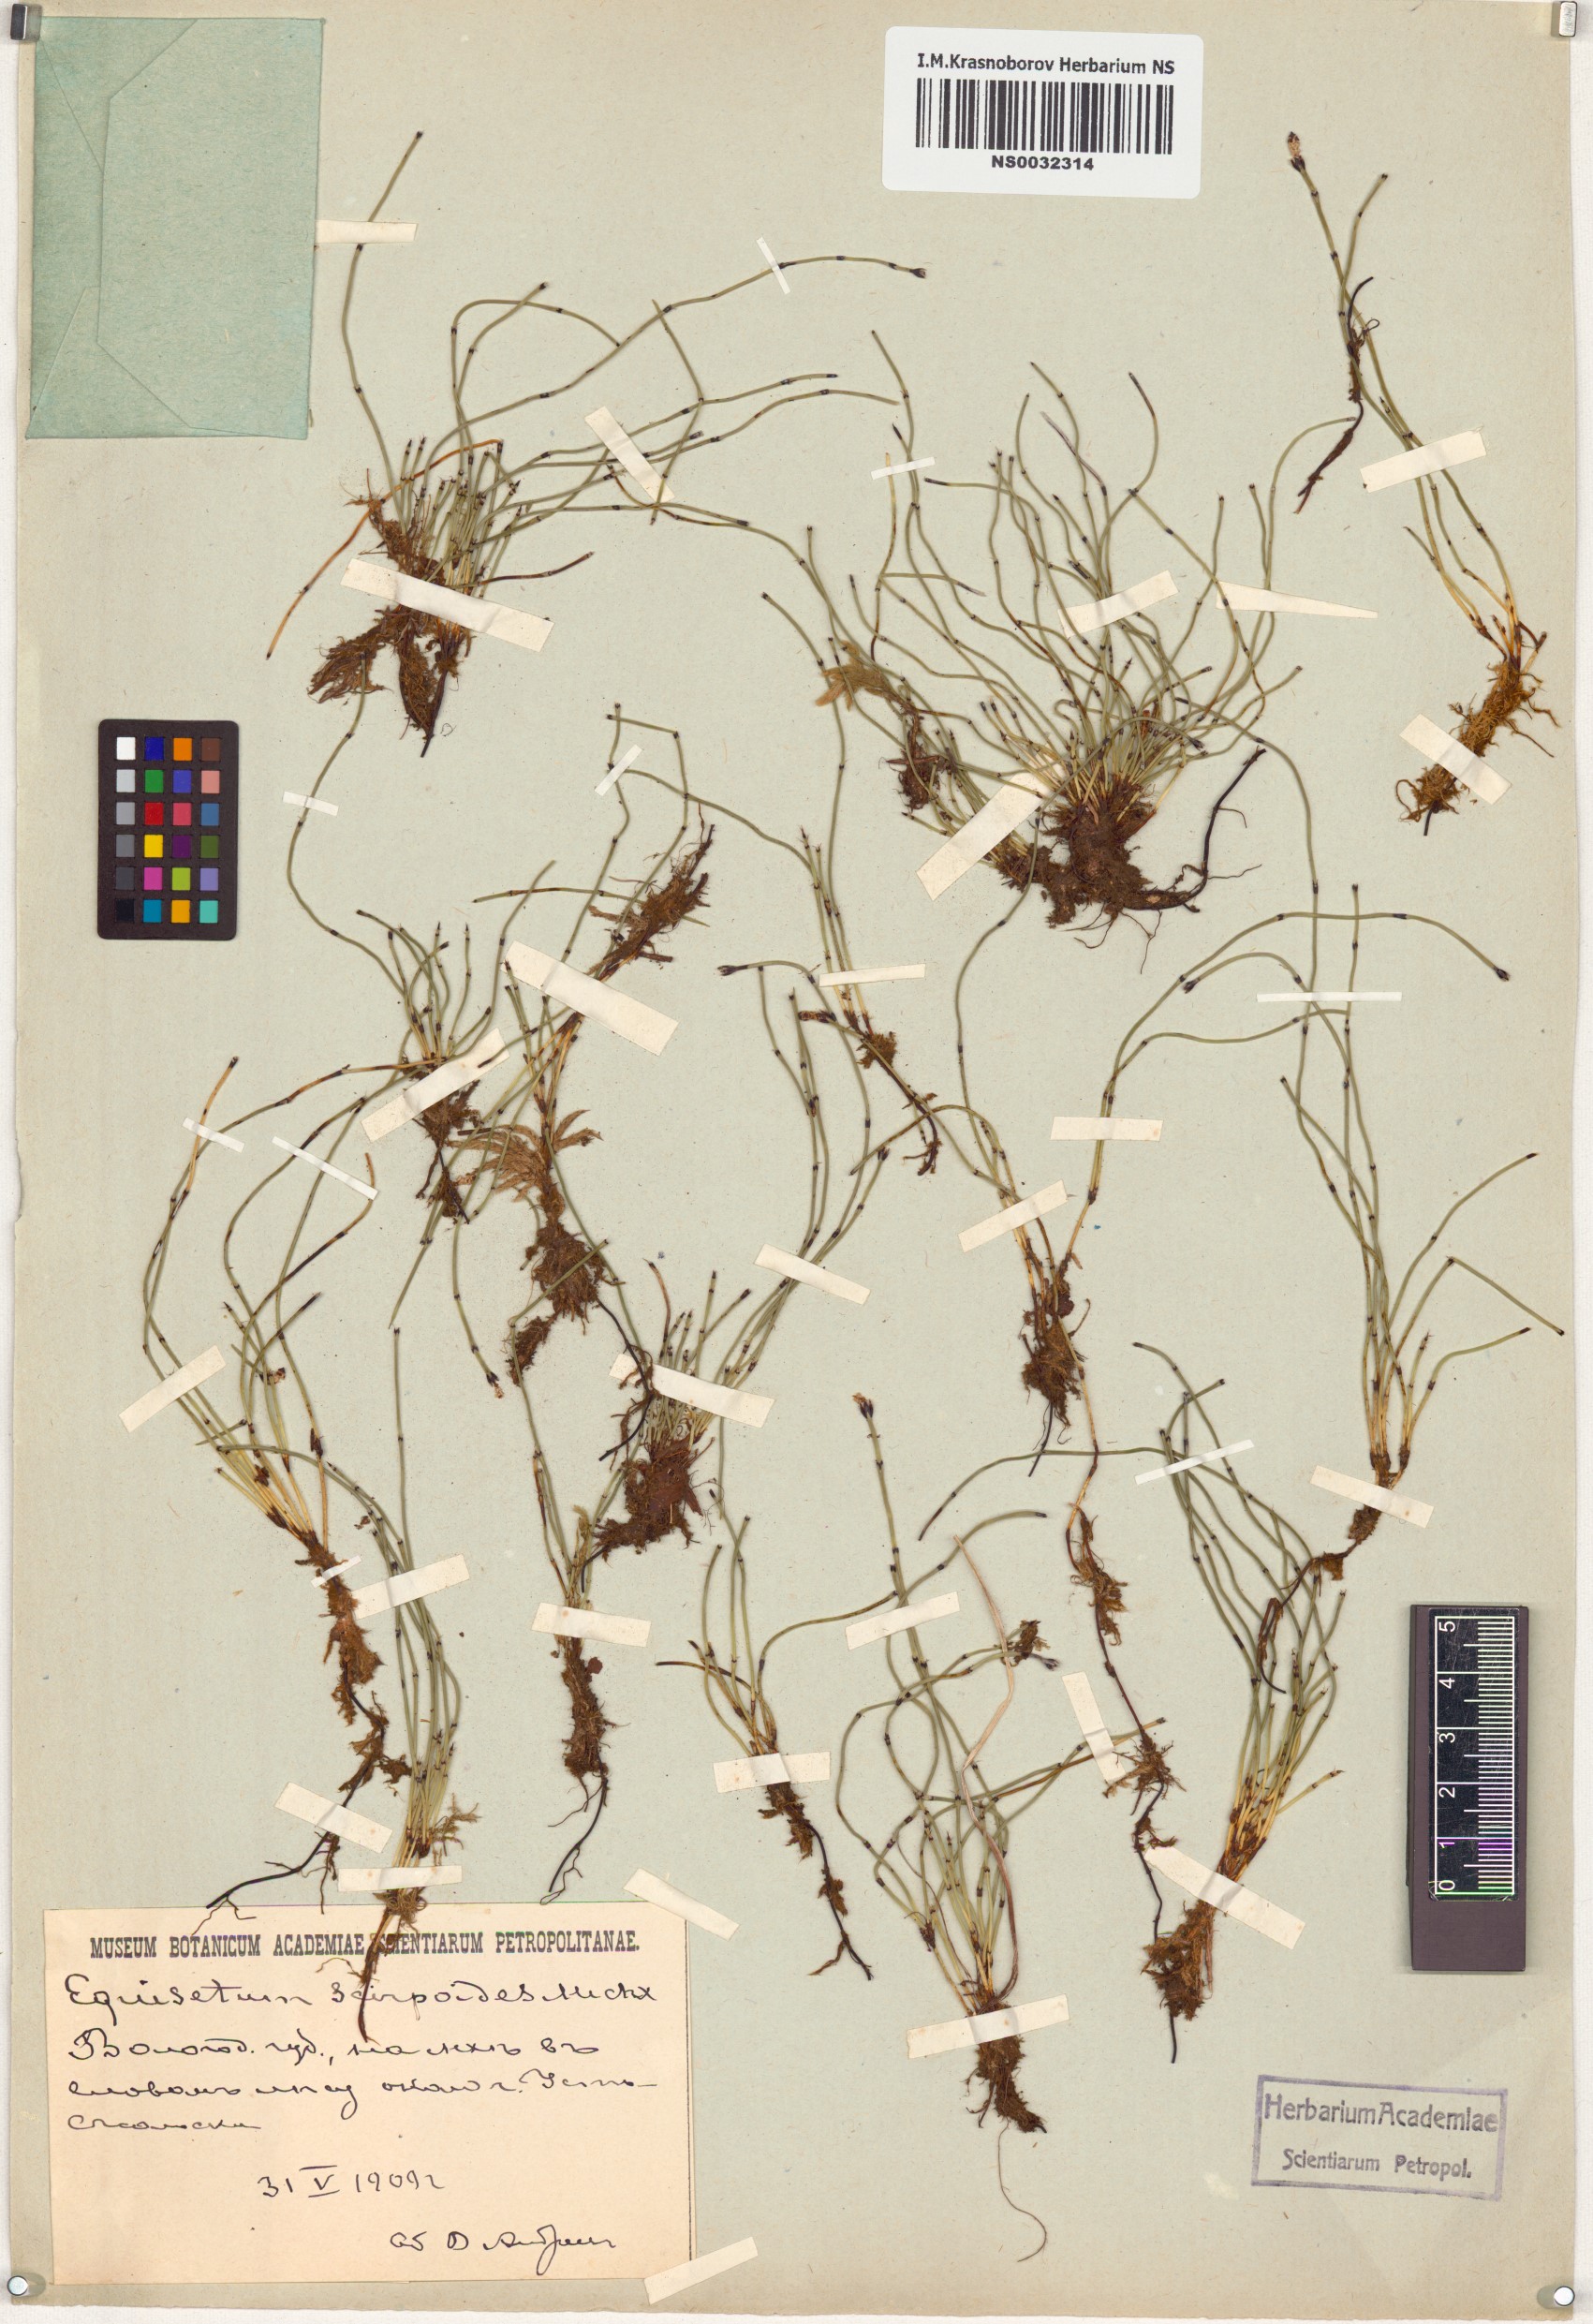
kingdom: Plantae
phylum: Tracheophyta
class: Polypodiopsida
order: Equisetales
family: Equisetaceae
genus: Equisetum
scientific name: Equisetum scirpoides
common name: Delicate horsetail
